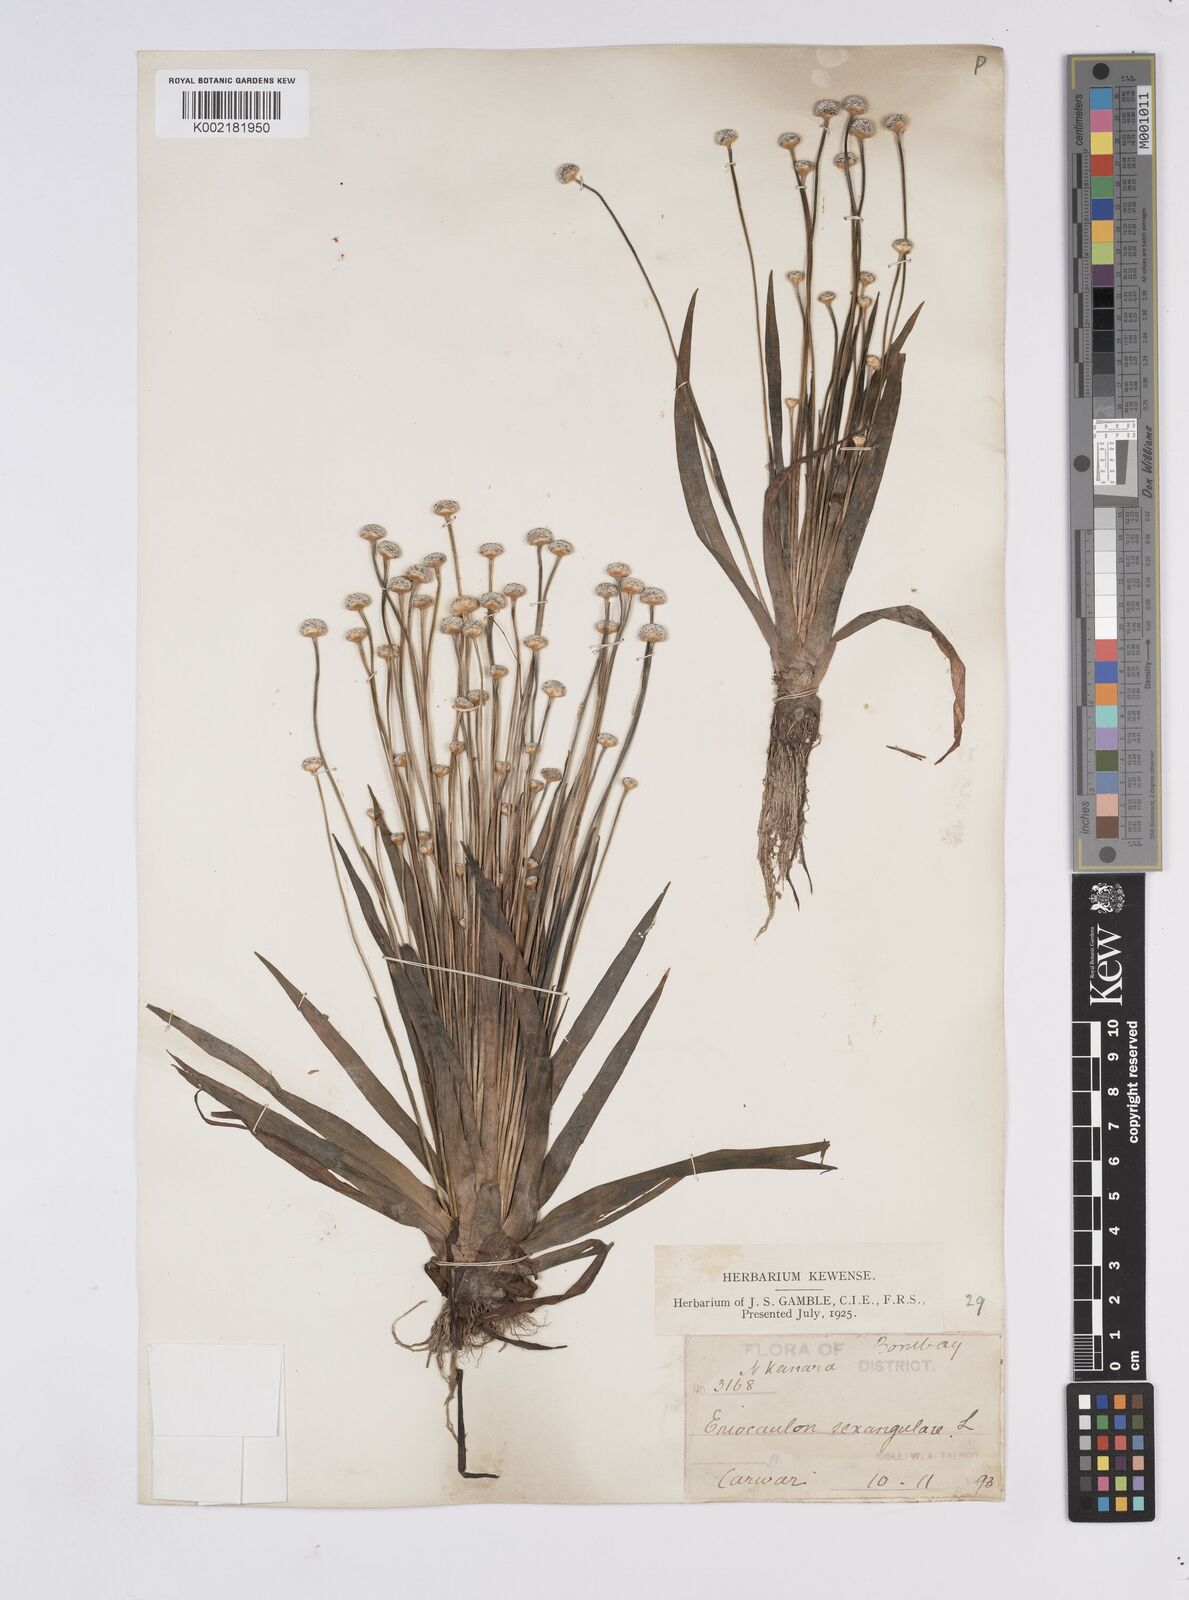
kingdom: Plantae
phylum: Tracheophyta
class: Liliopsida
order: Poales
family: Eriocaulaceae
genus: Eriocaulon
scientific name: Eriocaulon sexangulare
